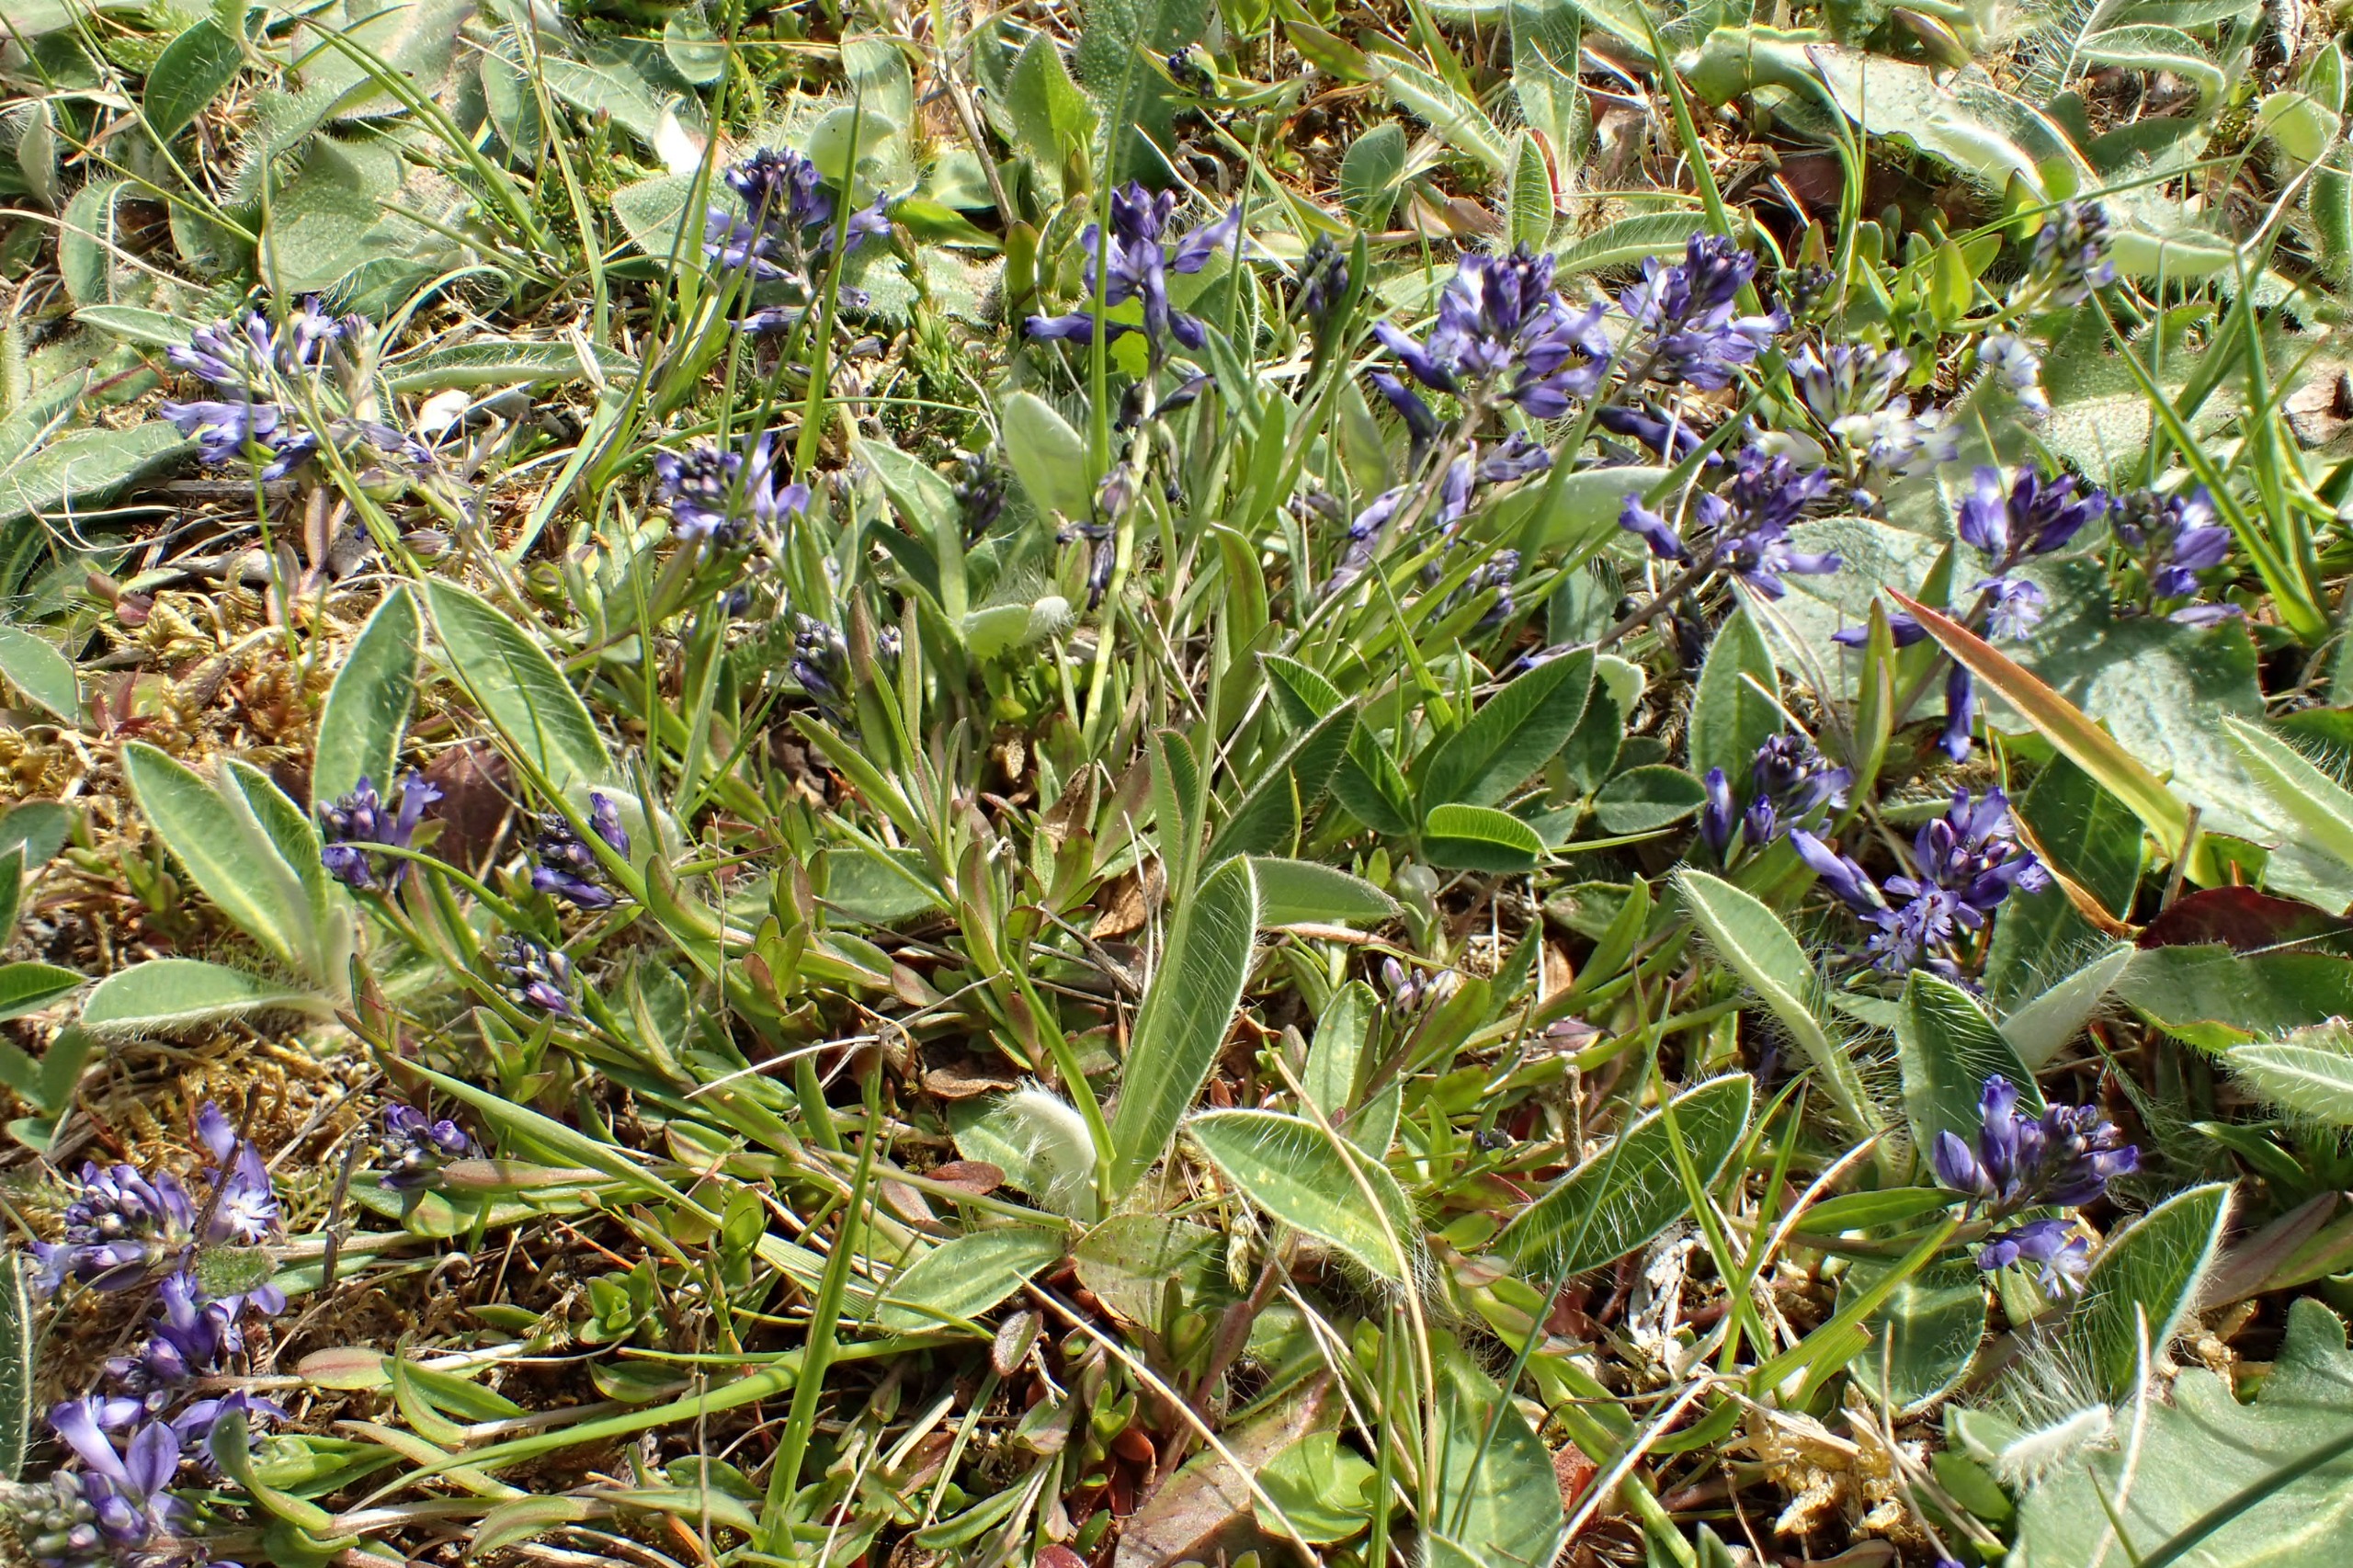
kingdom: Plantae
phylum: Tracheophyta
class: Magnoliopsida
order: Fabales
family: Polygalaceae
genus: Polygala
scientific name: Polygala vulgaris
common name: Almindelig mælkeurt
